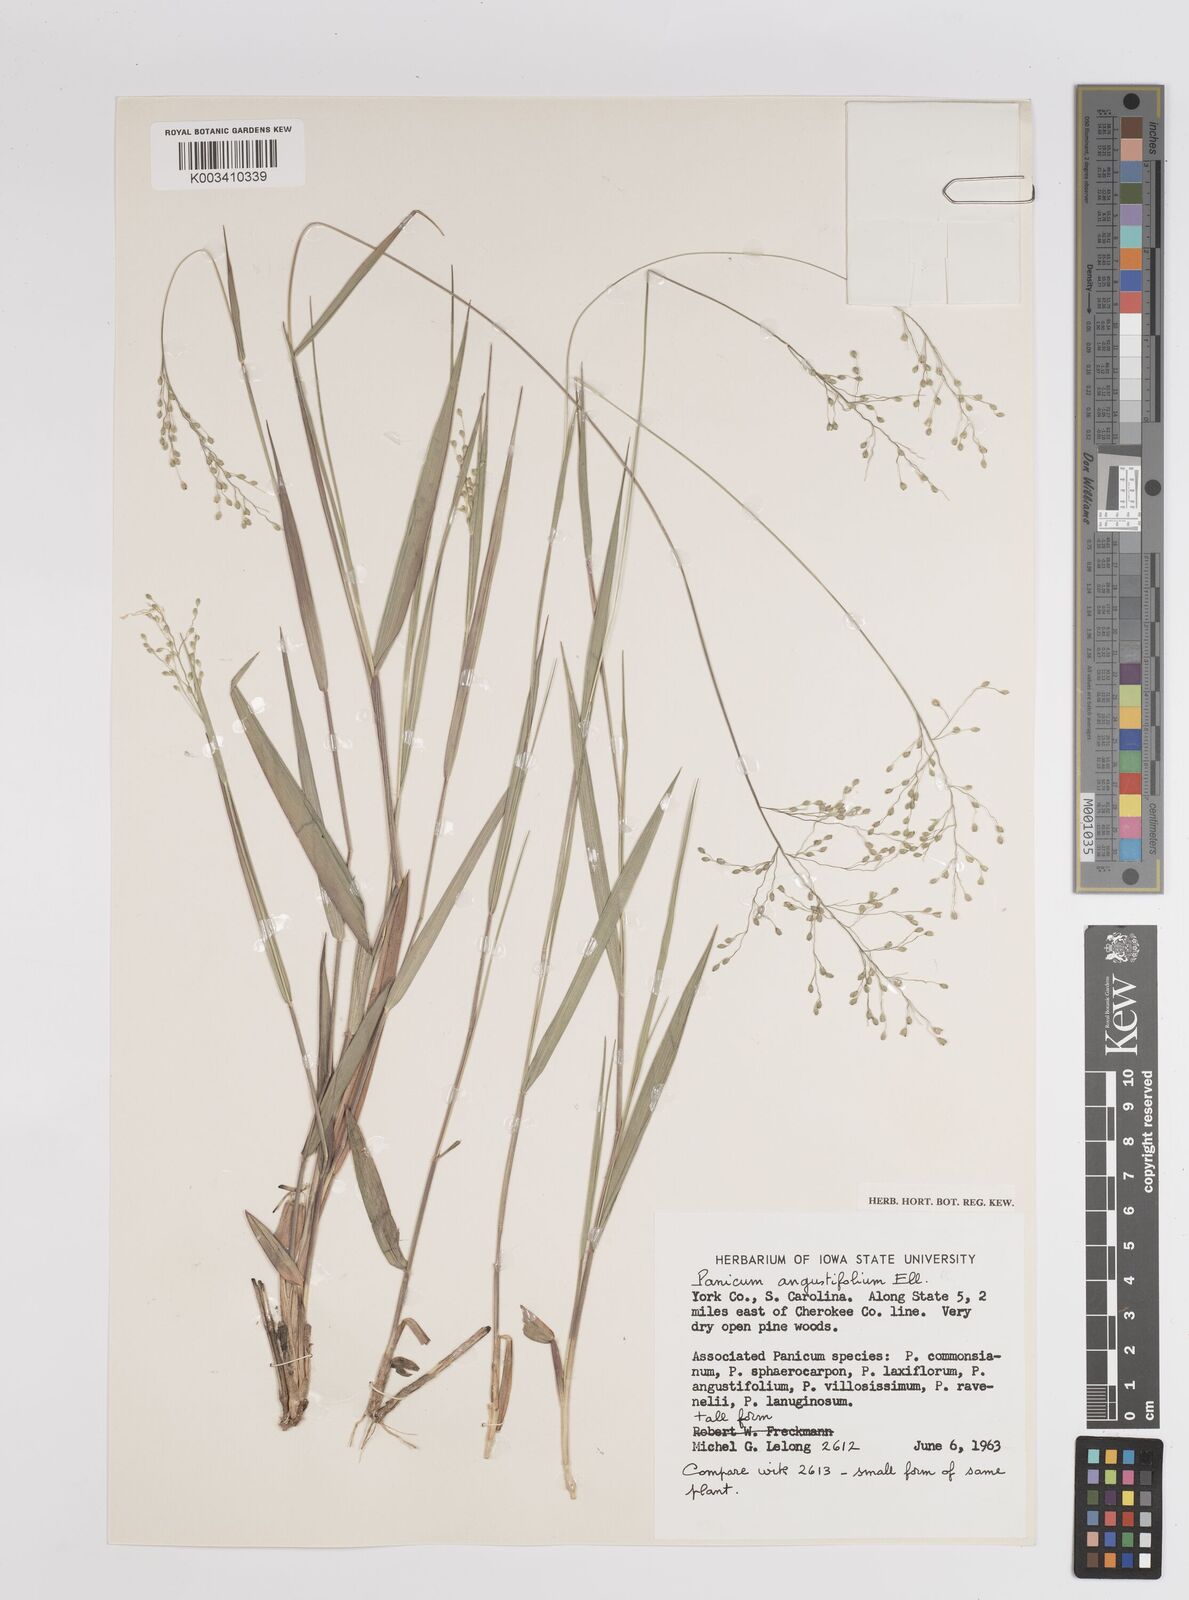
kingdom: Plantae
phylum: Tracheophyta
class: Liliopsida
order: Poales
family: Poaceae
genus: Dichanthelium
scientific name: Dichanthelium angustifolium
